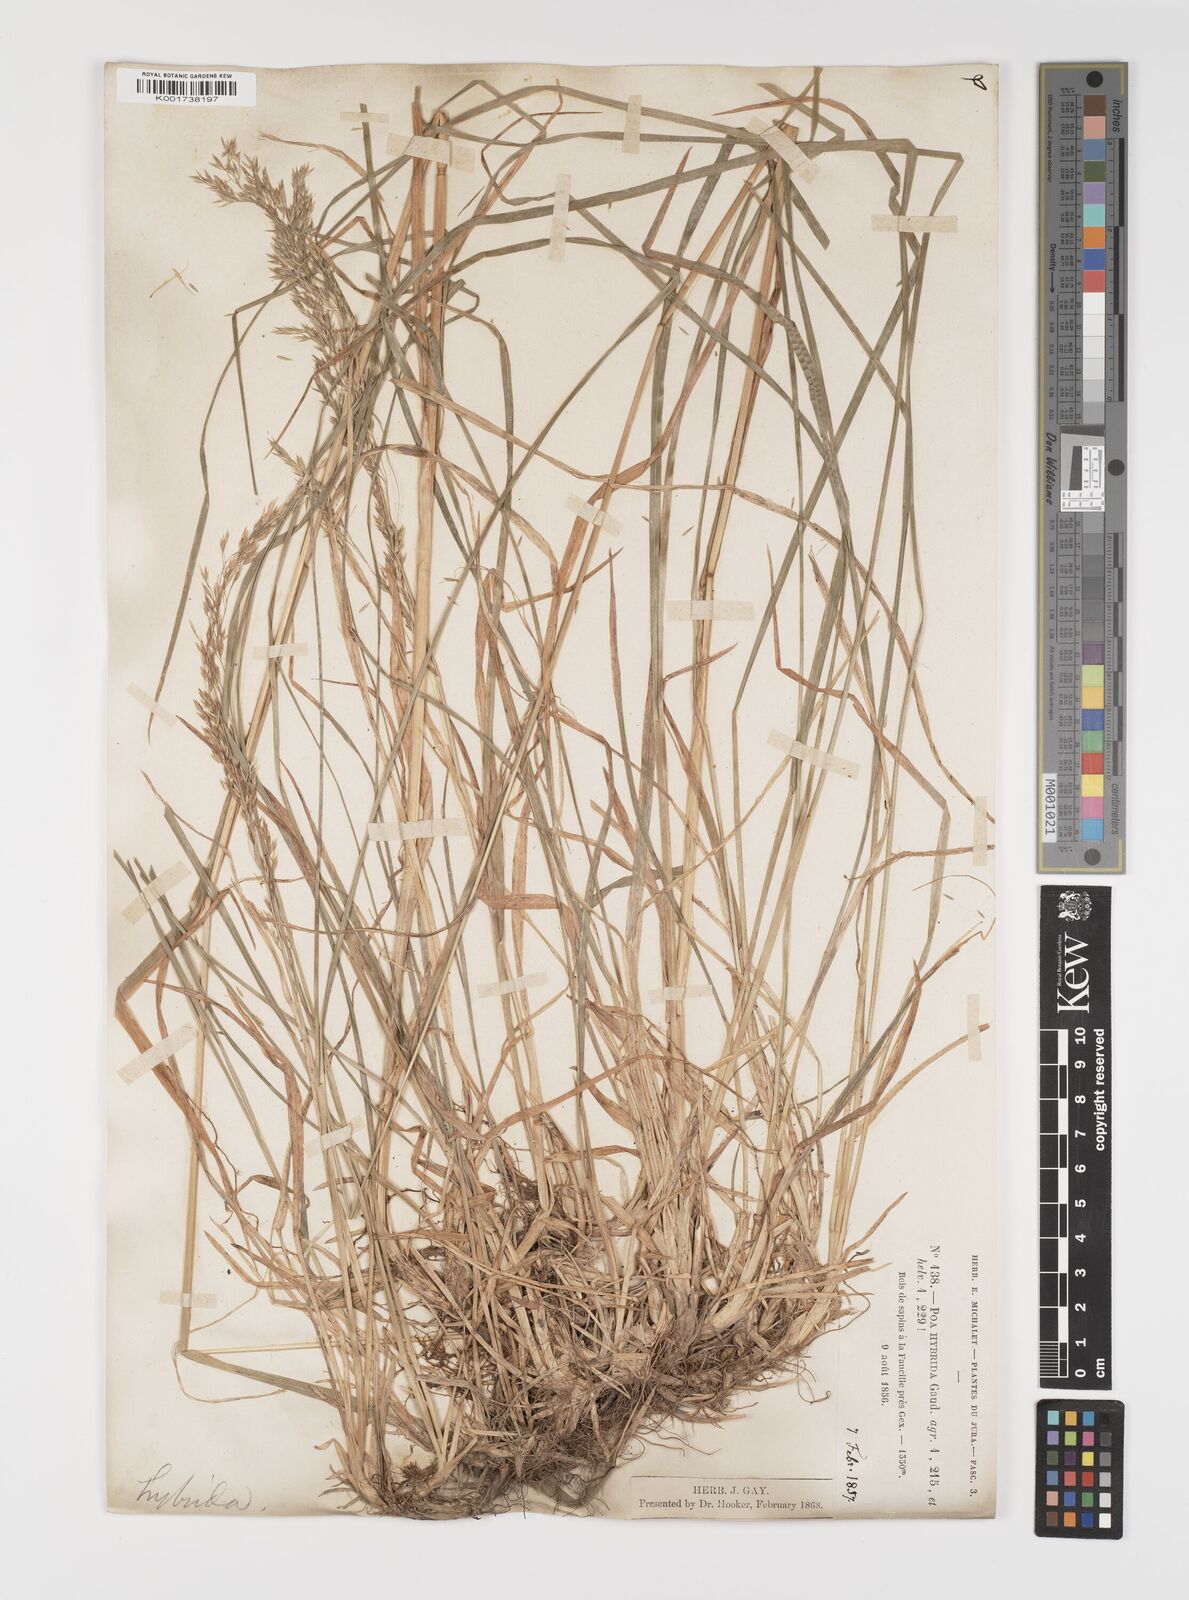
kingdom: Plantae
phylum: Tracheophyta
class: Liliopsida
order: Poales
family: Poaceae
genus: Poa
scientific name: Poa hybrida
